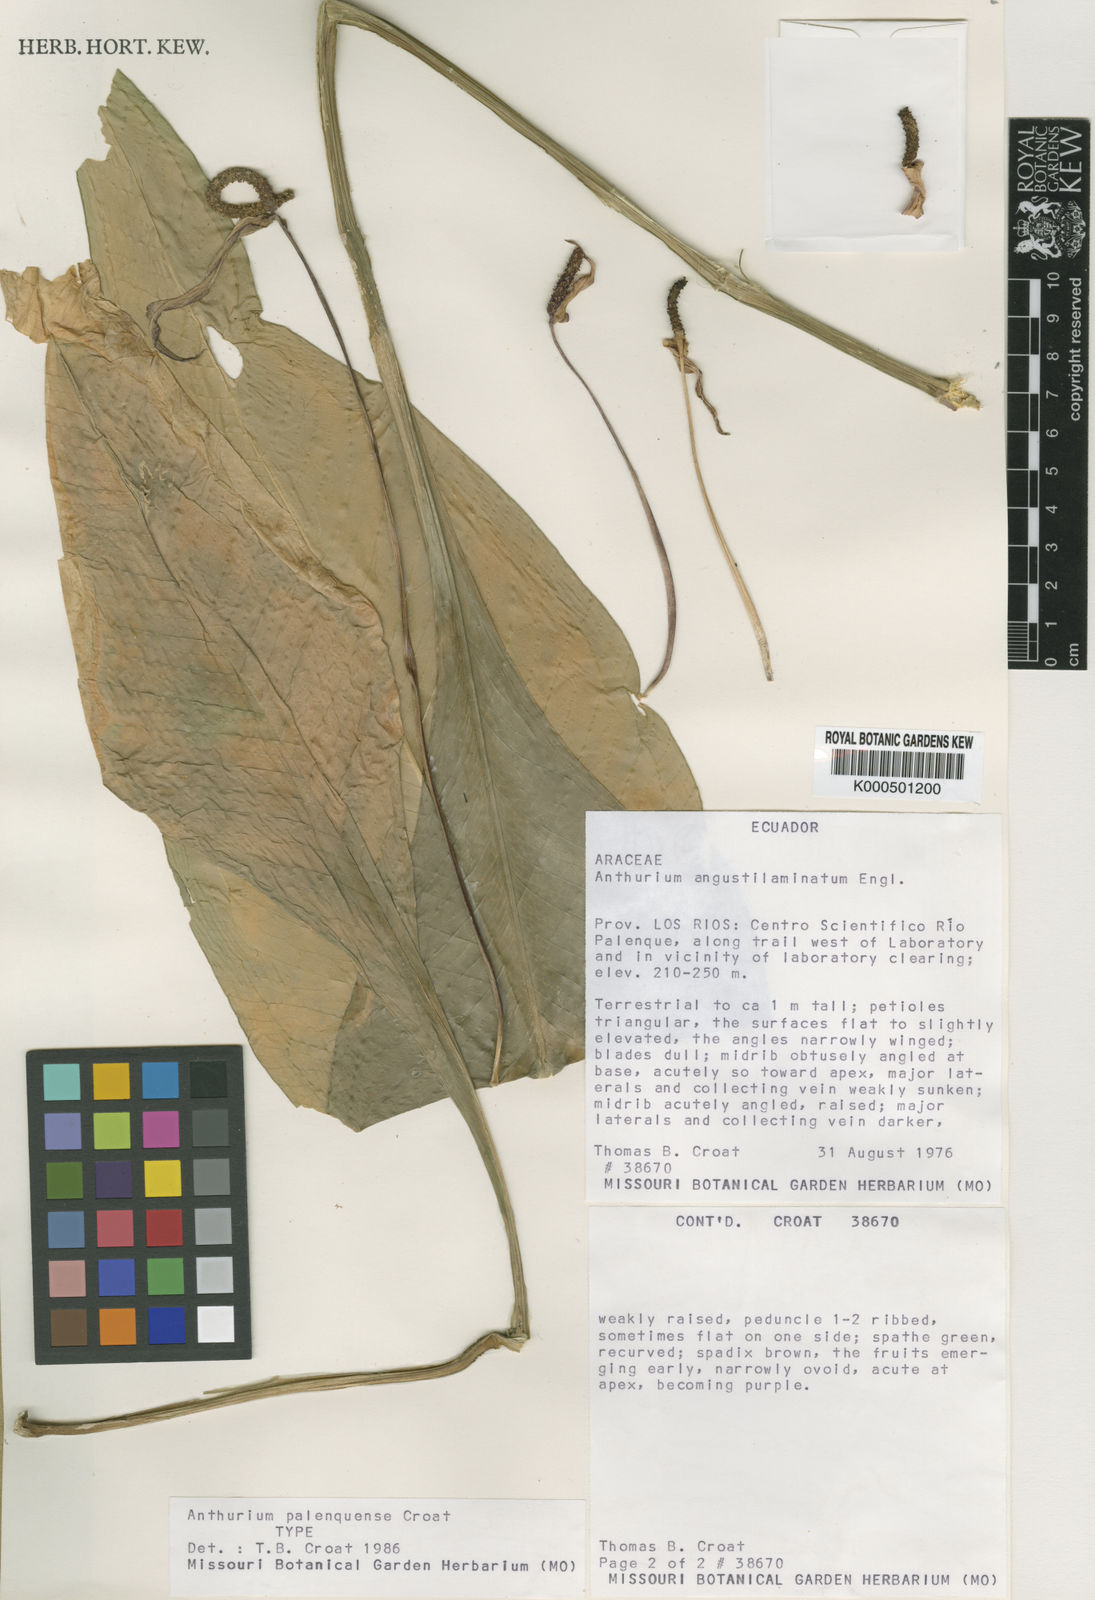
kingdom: Plantae
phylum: Tracheophyta
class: Liliopsida
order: Alismatales
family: Araceae
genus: Anthurium
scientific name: Anthurium palenquense
